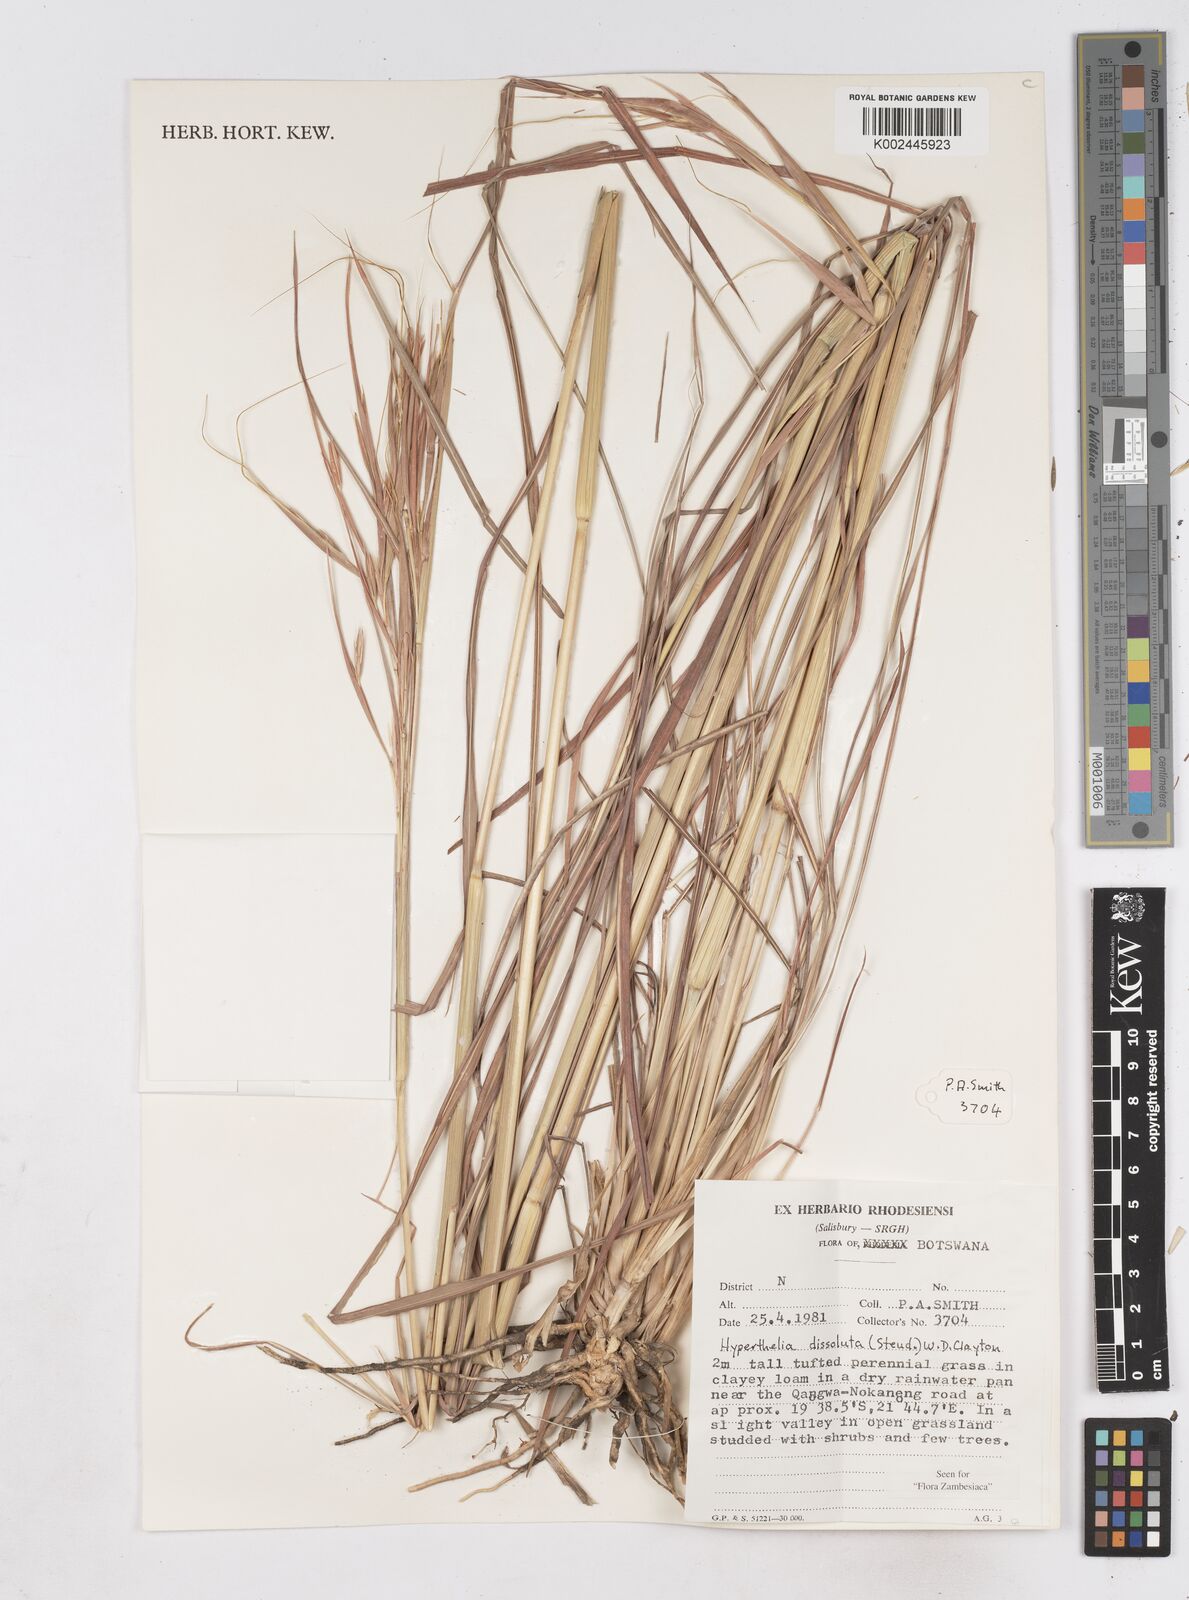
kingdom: Plantae
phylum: Tracheophyta
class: Liliopsida
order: Poales
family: Poaceae
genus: Hyperthelia
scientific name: Hyperthelia dissoluta
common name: Yellow thatching grass
